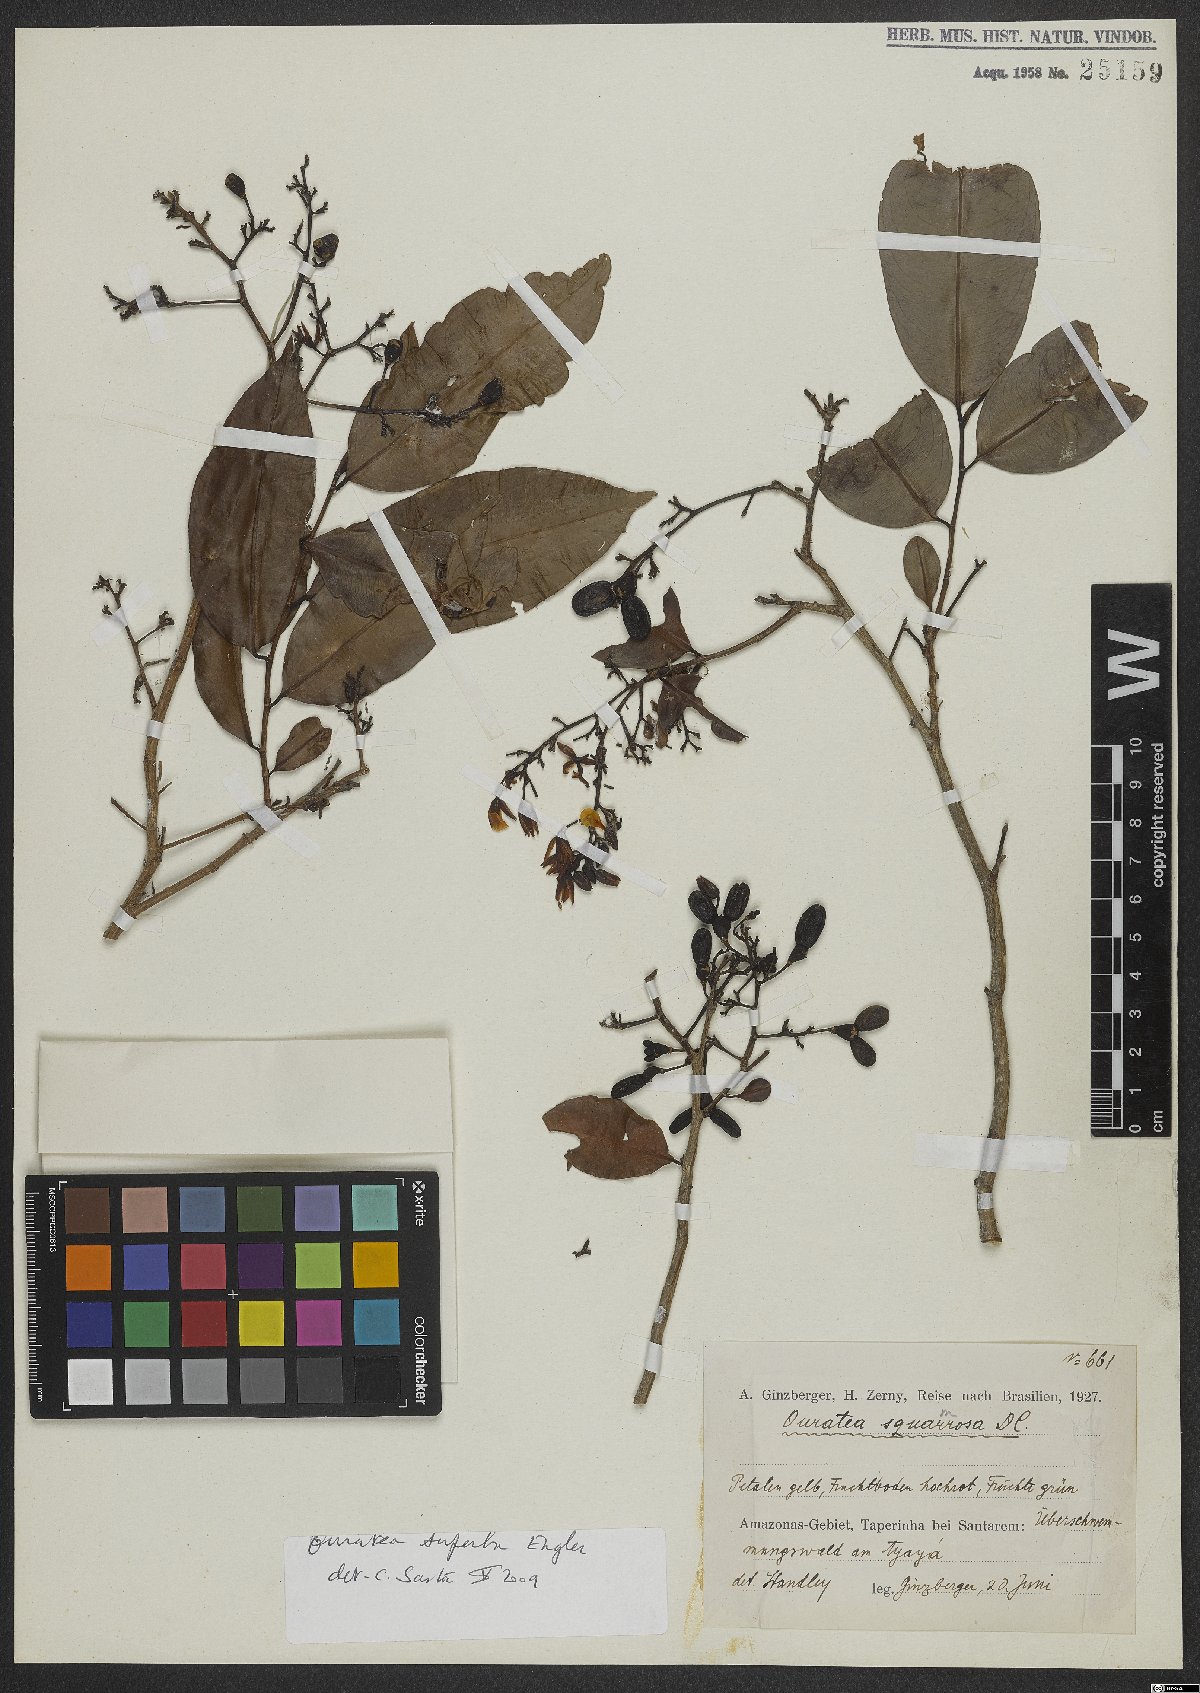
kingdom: Plantae
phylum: Tracheophyta
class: Magnoliopsida
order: Malpighiales
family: Ochnaceae
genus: Campylospermum
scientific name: Campylospermum squamosum
